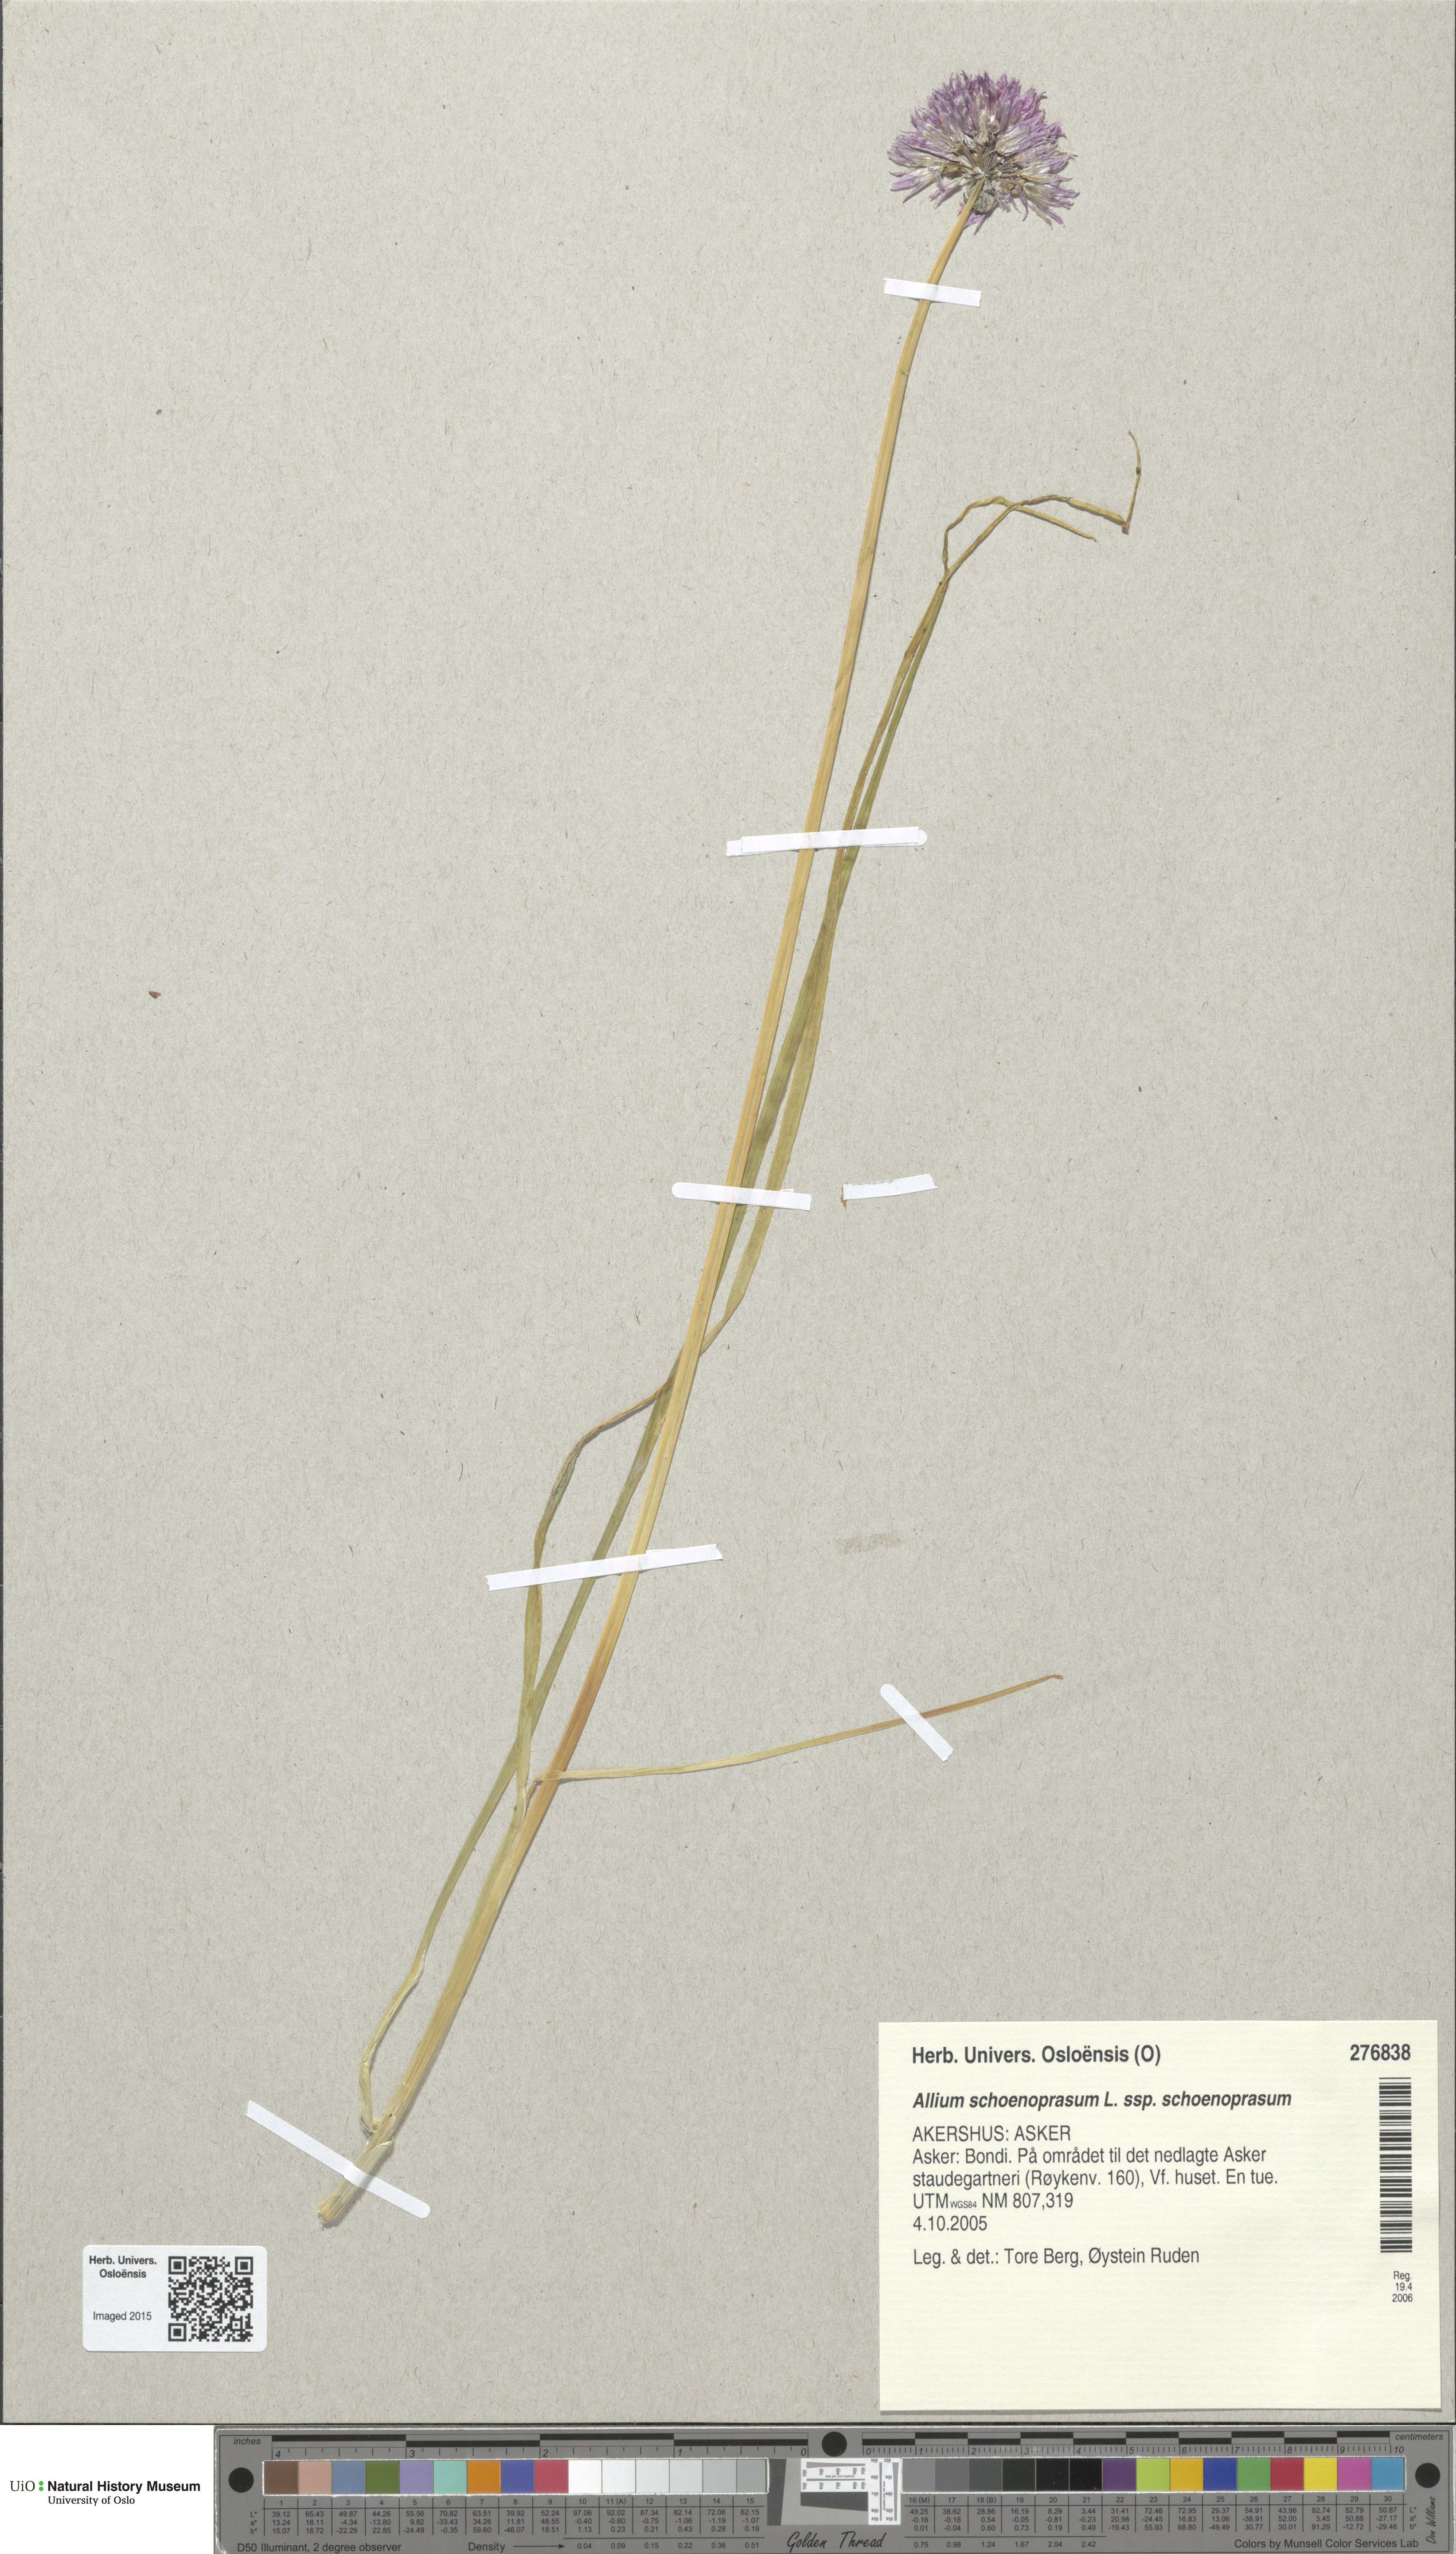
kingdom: Plantae
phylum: Tracheophyta
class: Liliopsida
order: Asparagales
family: Amaryllidaceae
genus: Allium
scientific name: Allium schoenoprasum
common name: Chives
